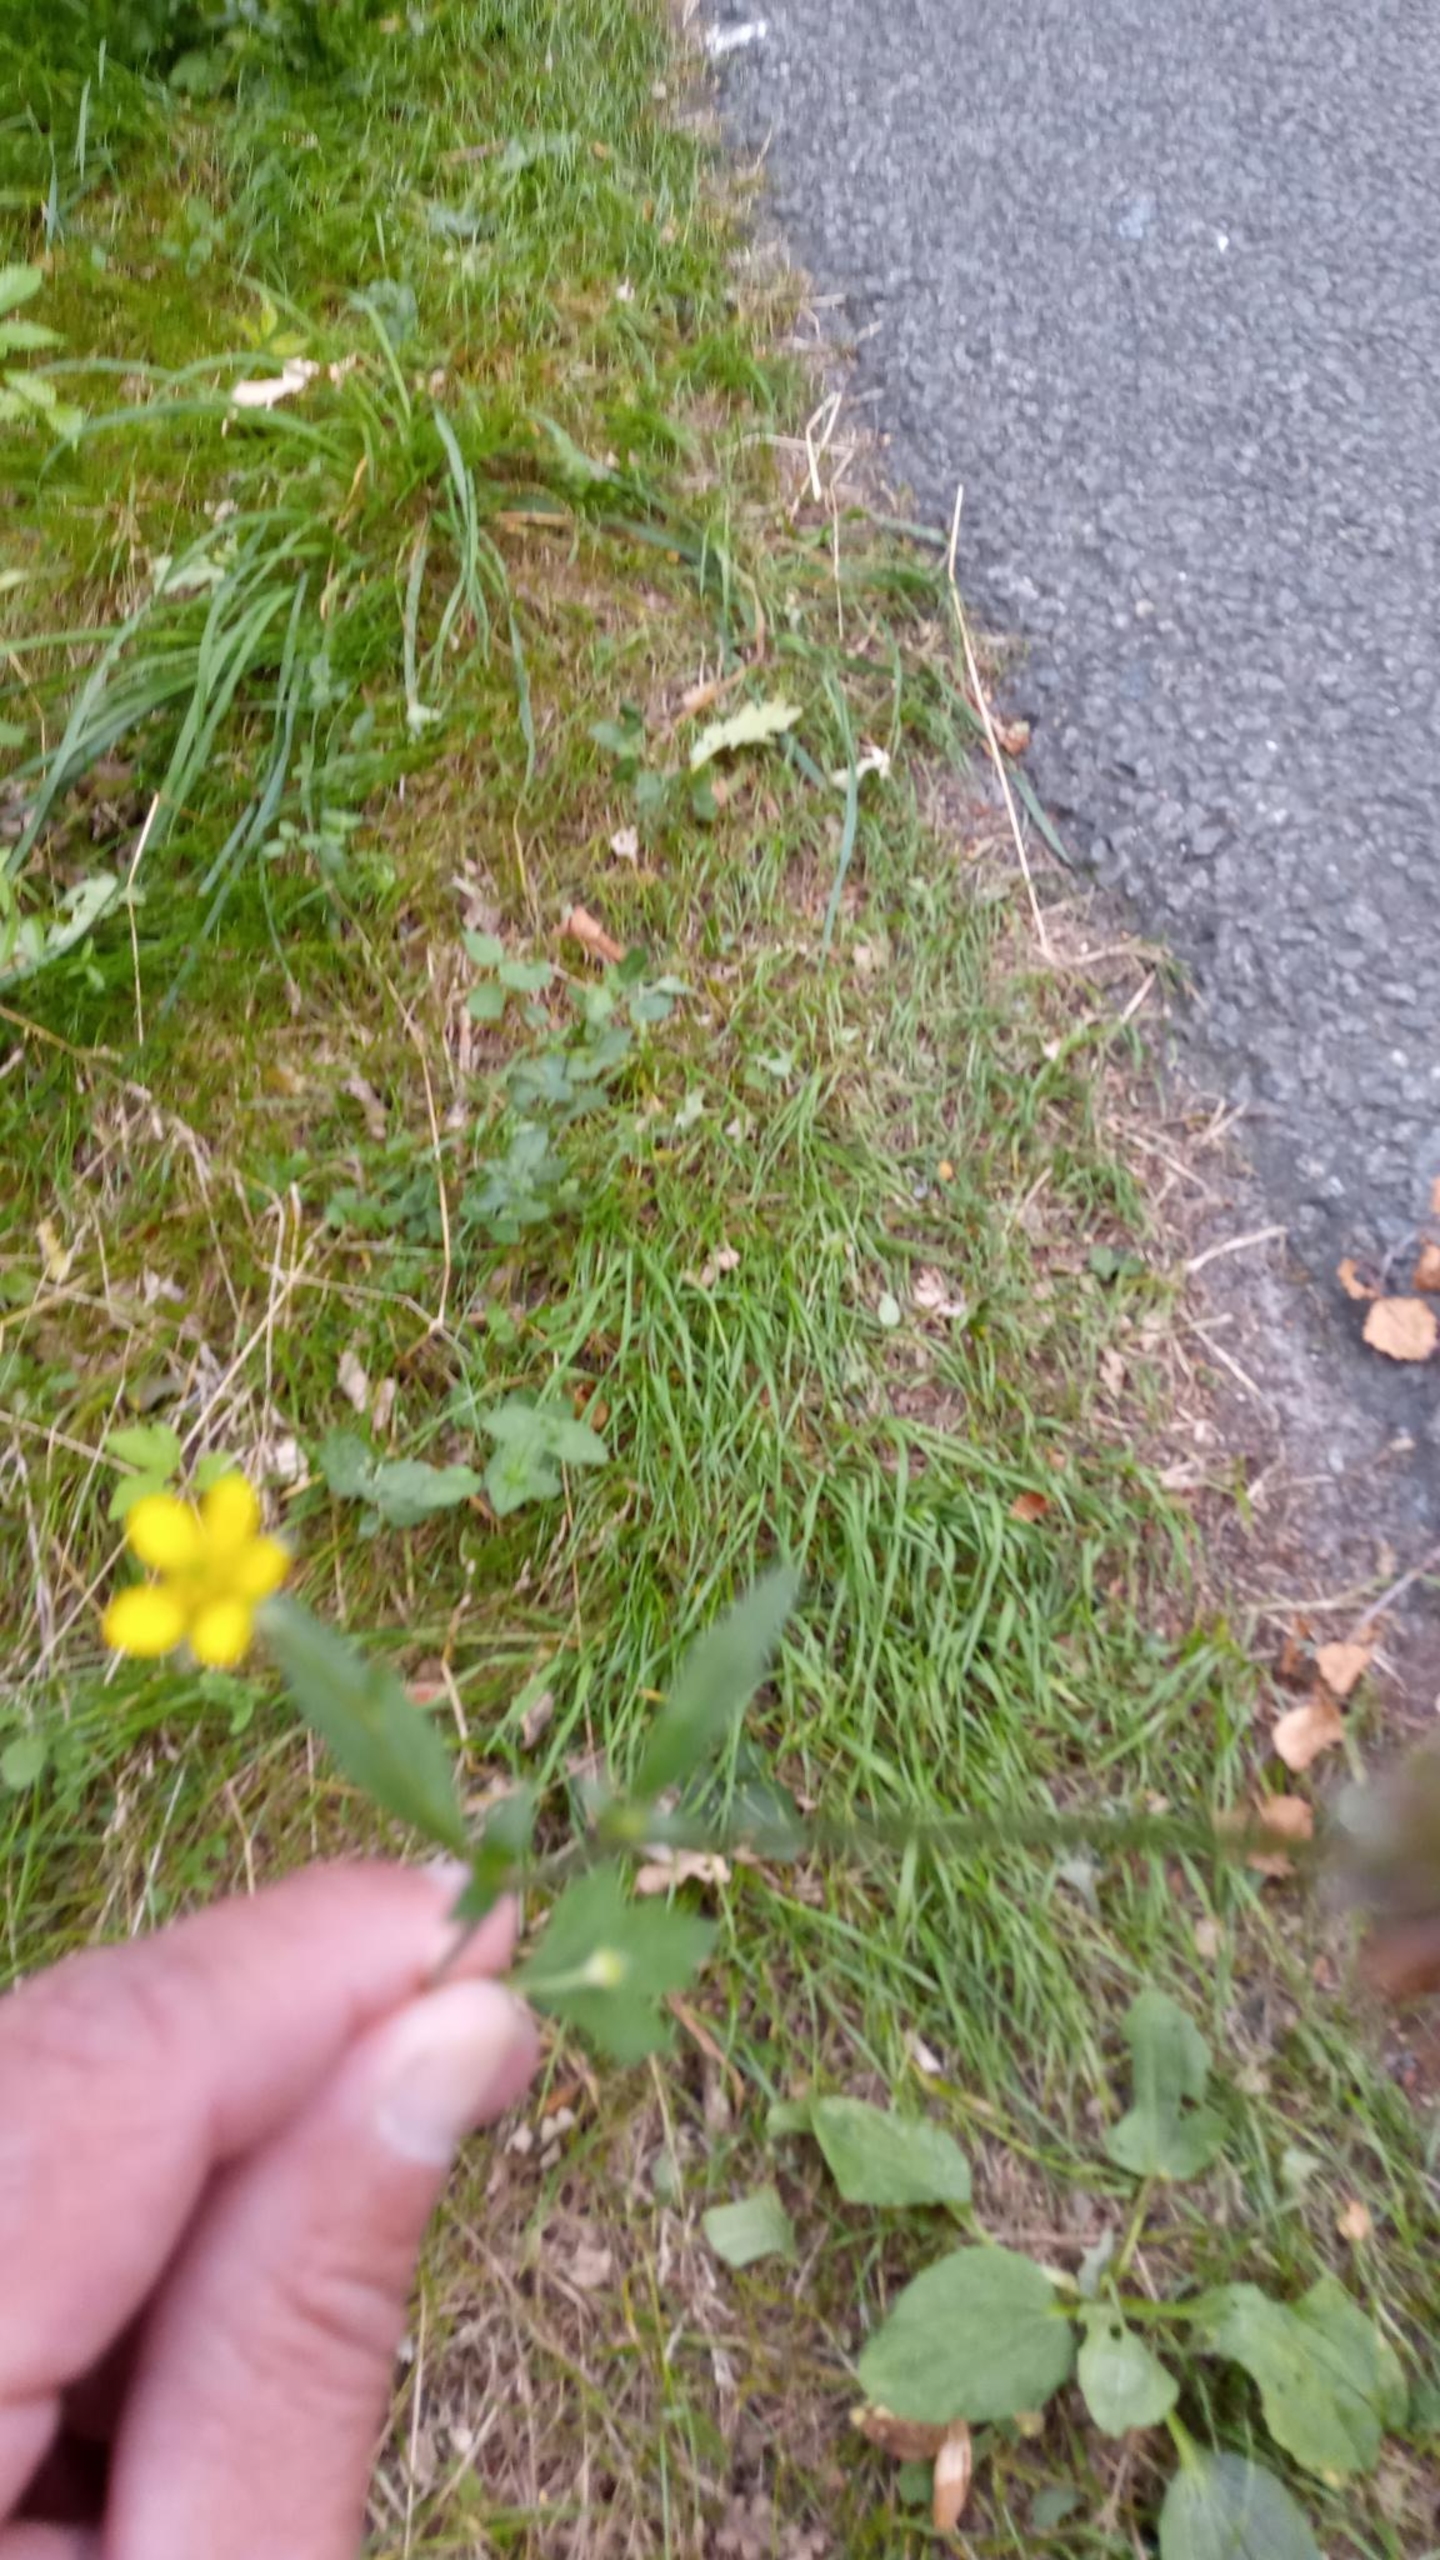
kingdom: Plantae
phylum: Tracheophyta
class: Magnoliopsida
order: Rosales
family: Rosaceae
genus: Geum
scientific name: Geum urbanum
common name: Feber-nellikerod
